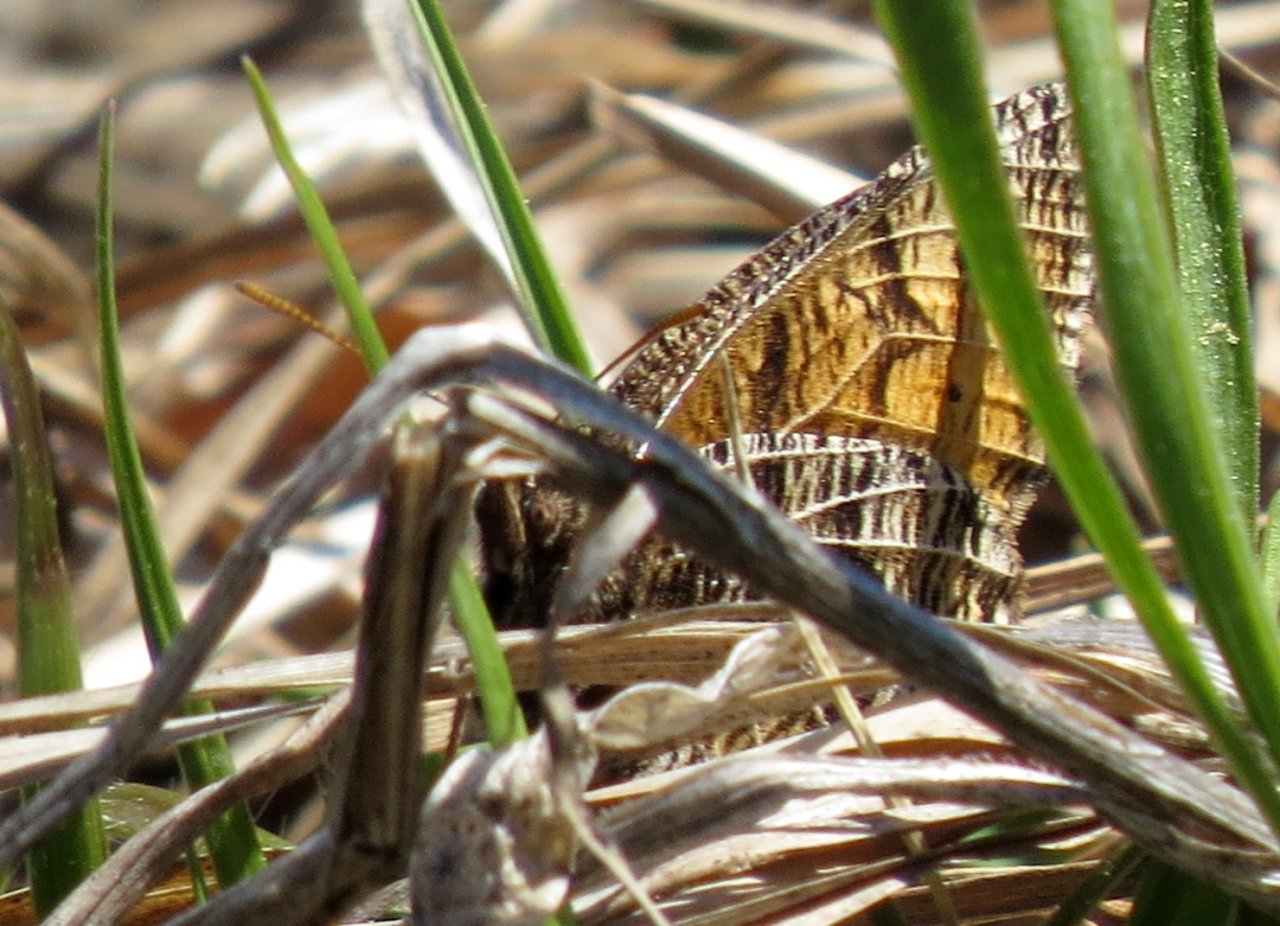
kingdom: Animalia
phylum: Arthropoda
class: Insecta
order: Lepidoptera
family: Nymphalidae
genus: Oeneis
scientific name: Oeneis chryxus
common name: Chryxus Arctic
